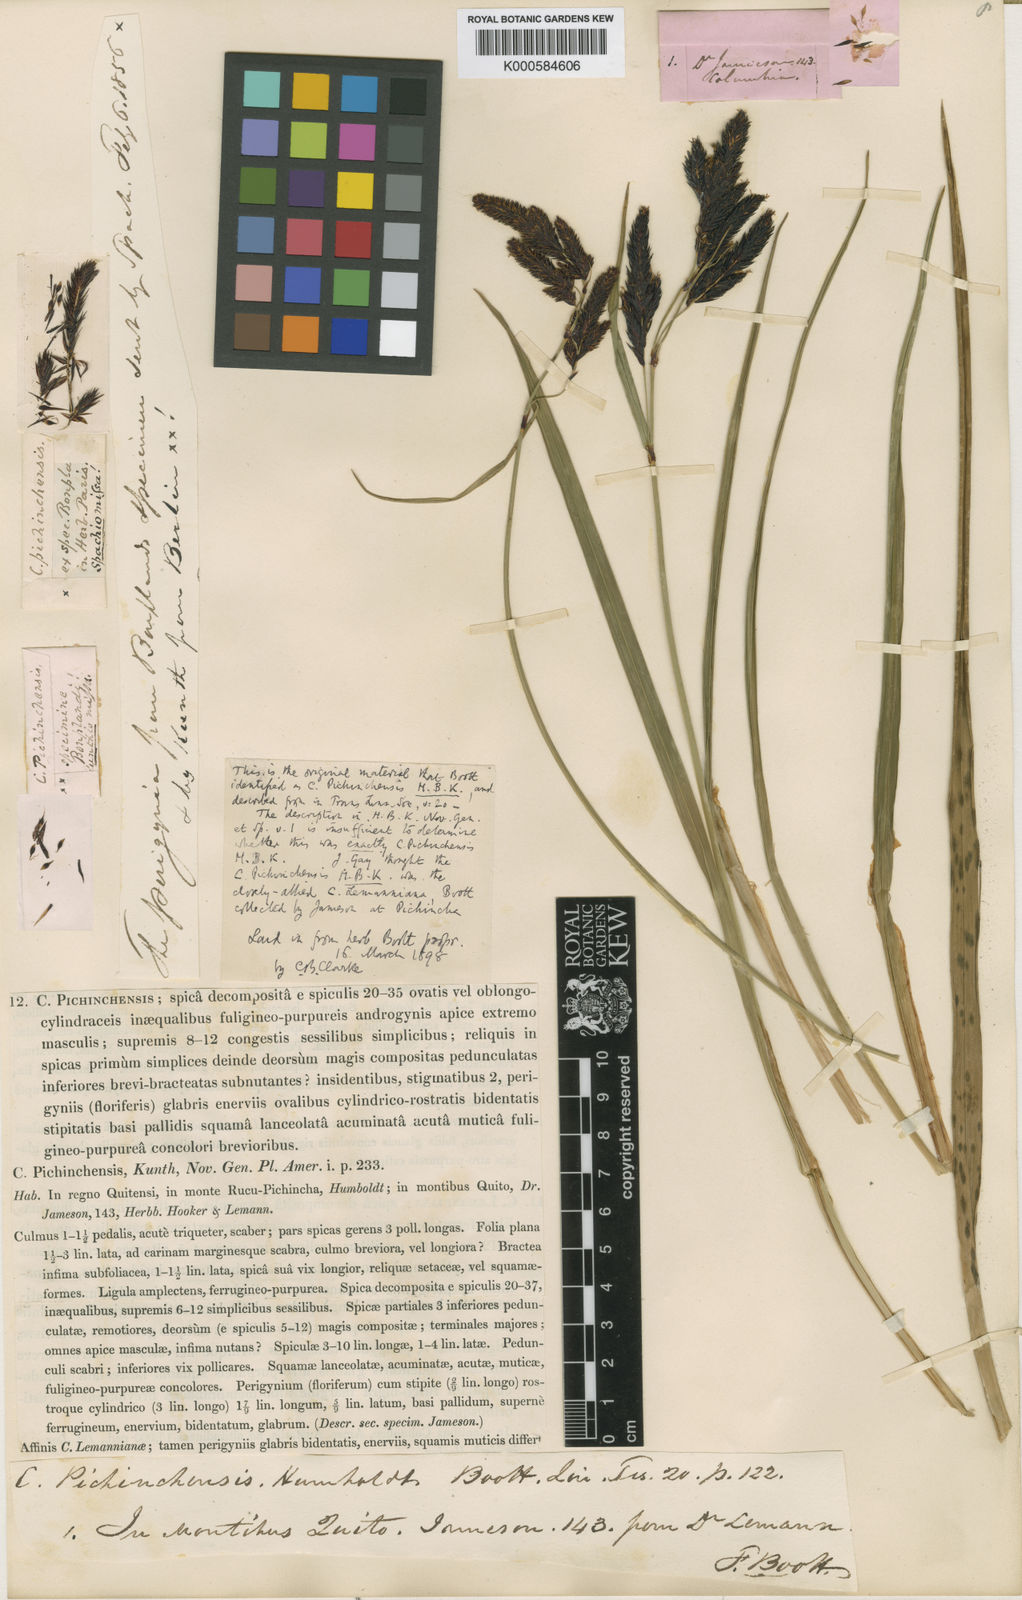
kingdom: Plantae
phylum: Tracheophyta
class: Liliopsida
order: Poales
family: Cyperaceae
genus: Carex
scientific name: Carex pichinchensis
